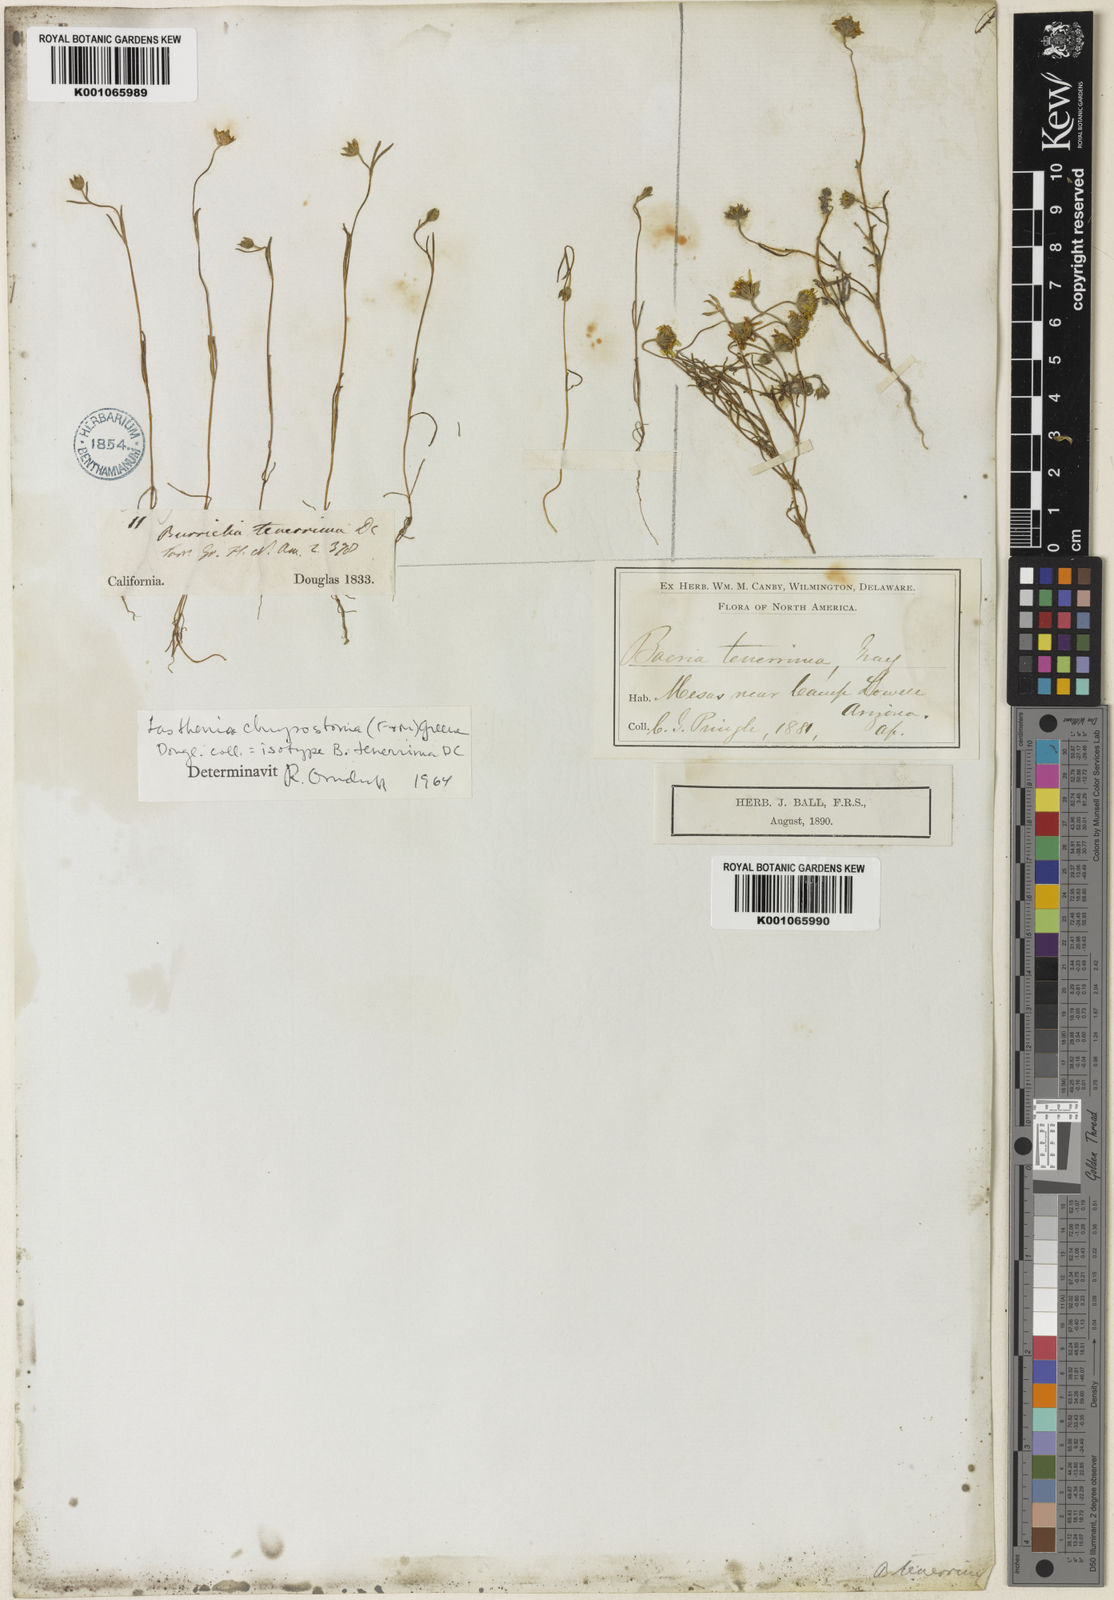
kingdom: Plantae
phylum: Tracheophyta
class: Magnoliopsida
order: Asterales
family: Asteraceae
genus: Lasthenia
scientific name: Lasthenia californica
